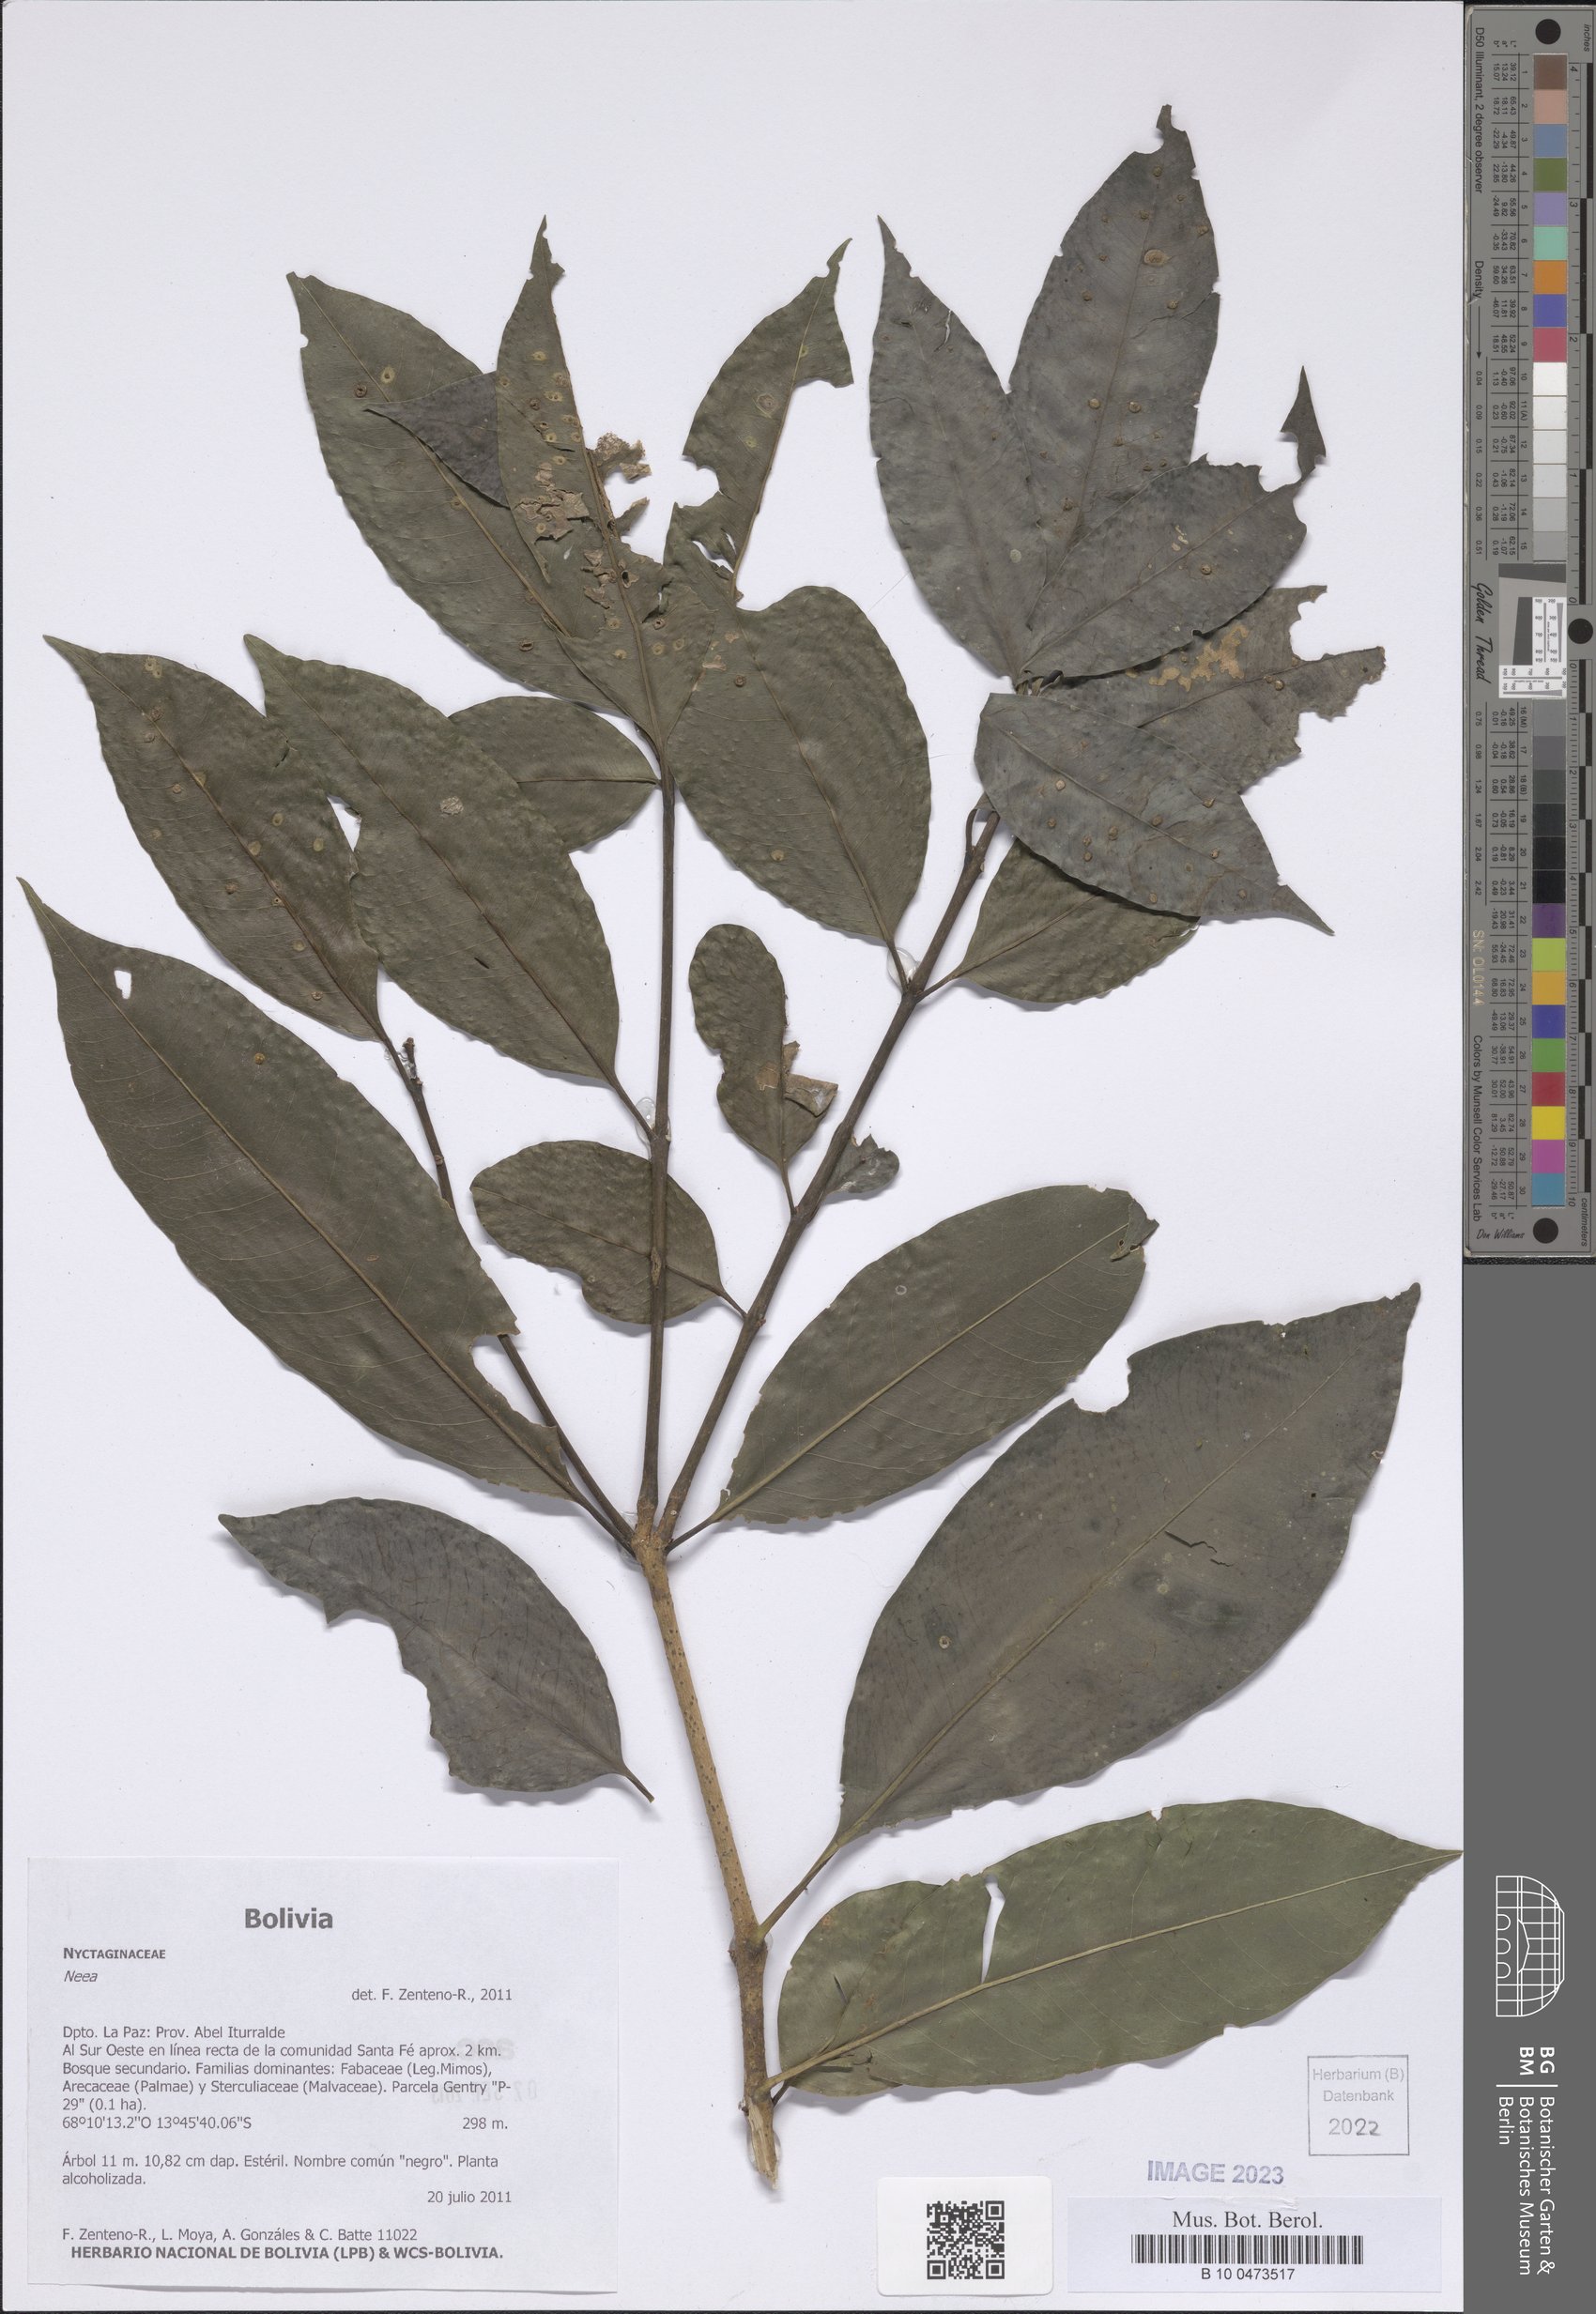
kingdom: Plantae
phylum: Tracheophyta
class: Magnoliopsida
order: Caryophyllales
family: Nyctaginaceae
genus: Neea
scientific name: Neea
